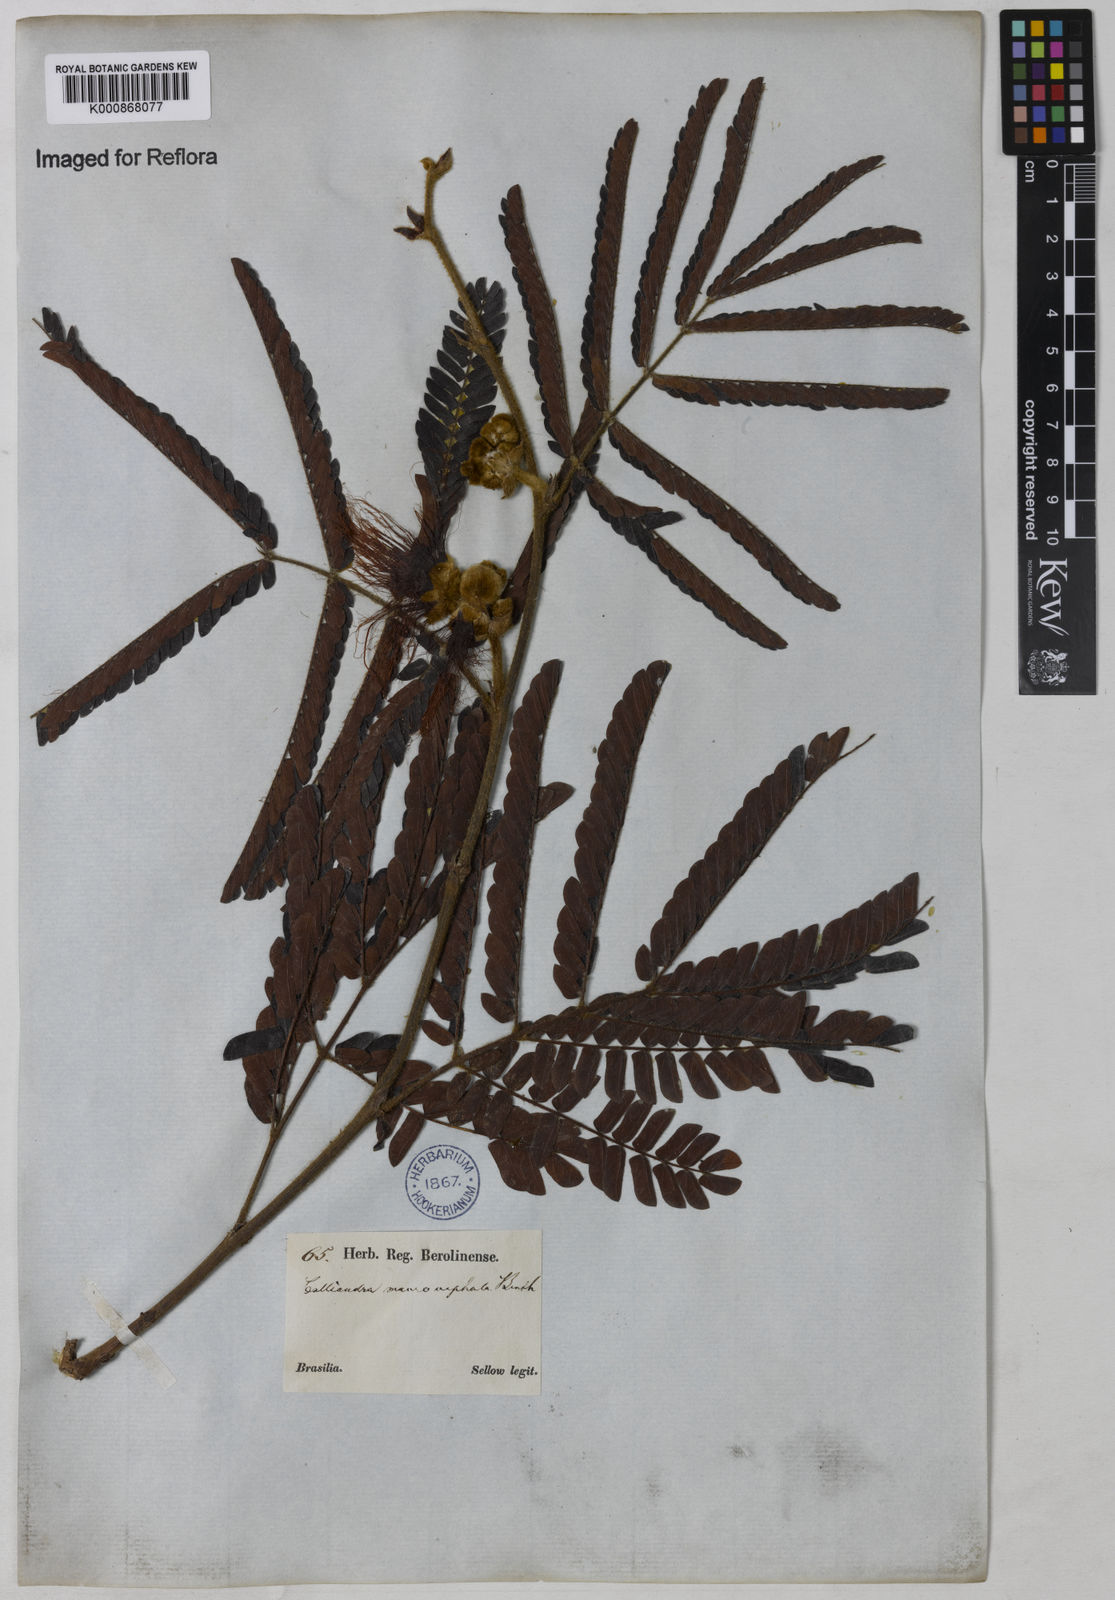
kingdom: Plantae
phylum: Tracheophyta
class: Magnoliopsida
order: Fabales
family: Fabaceae
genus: Calliandra
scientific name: Calliandra dysantha
